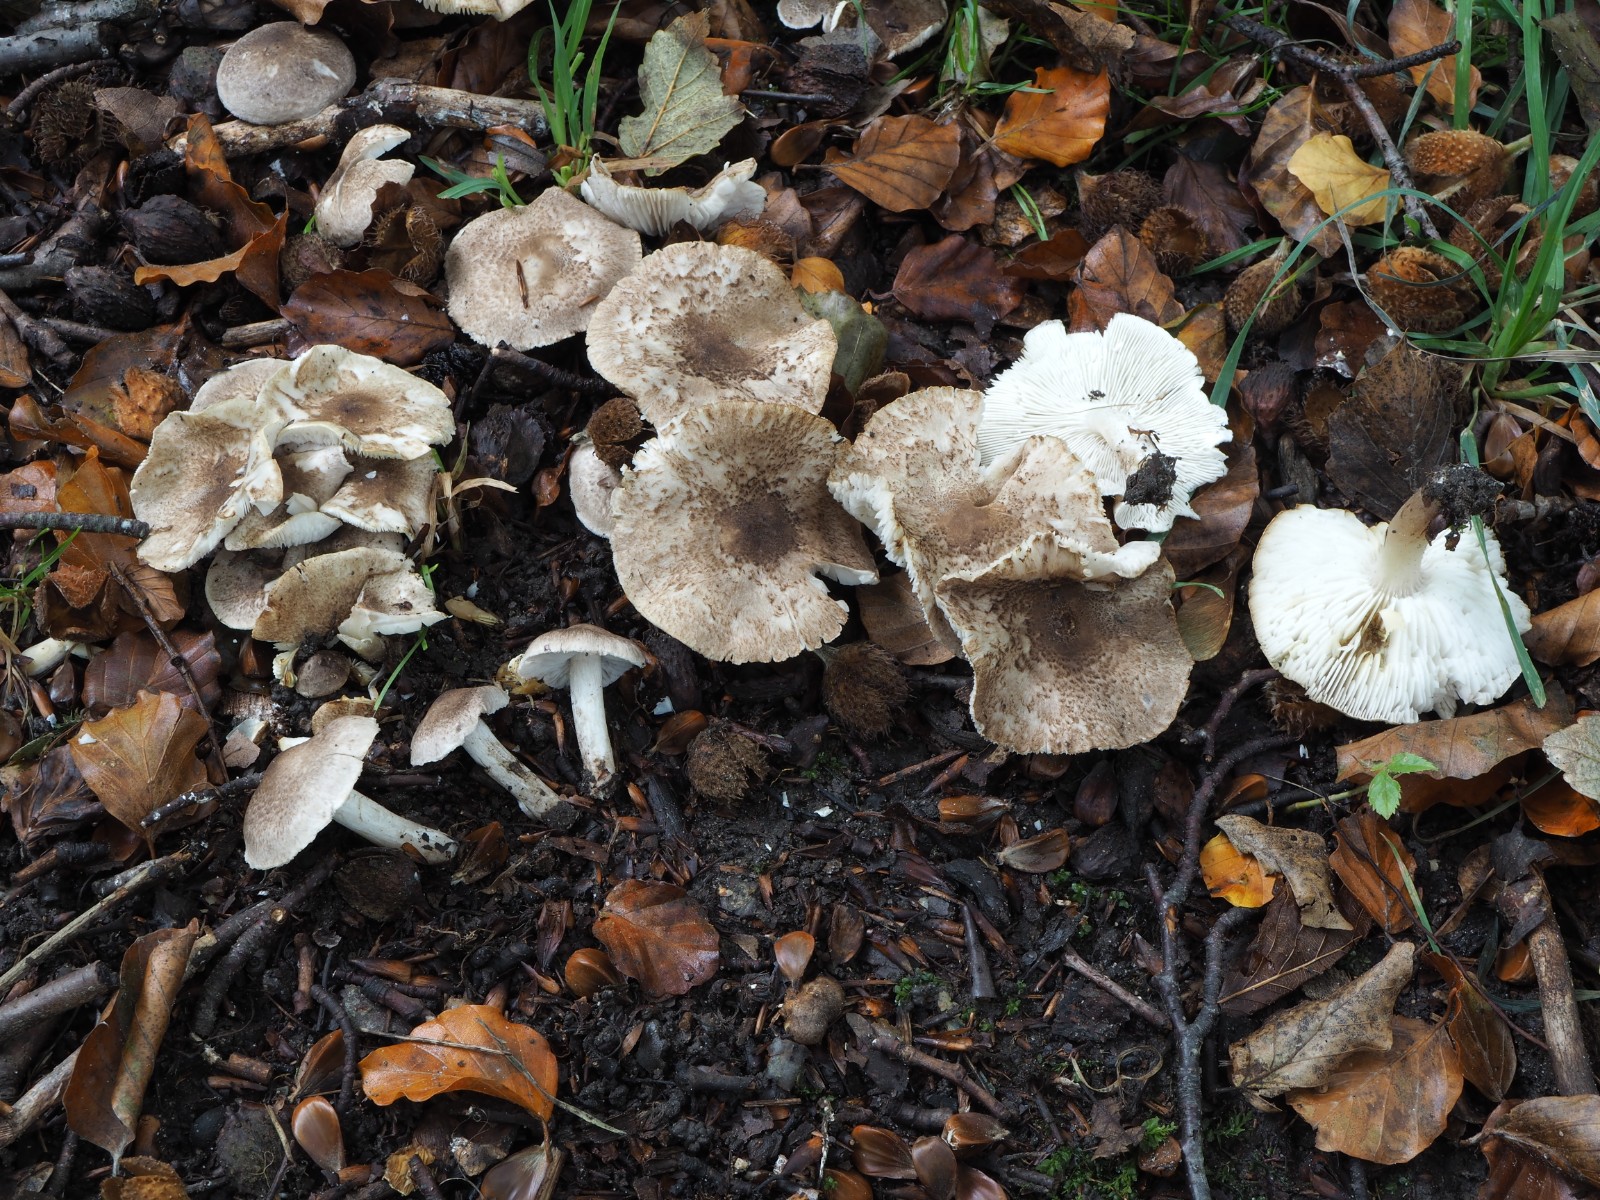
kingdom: Fungi
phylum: Basidiomycota
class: Agaricomycetes
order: Agaricales
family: Tricholomataceae
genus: Tricholoma
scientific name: Tricholoma scalpturatum
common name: gulplettet ridderhat
